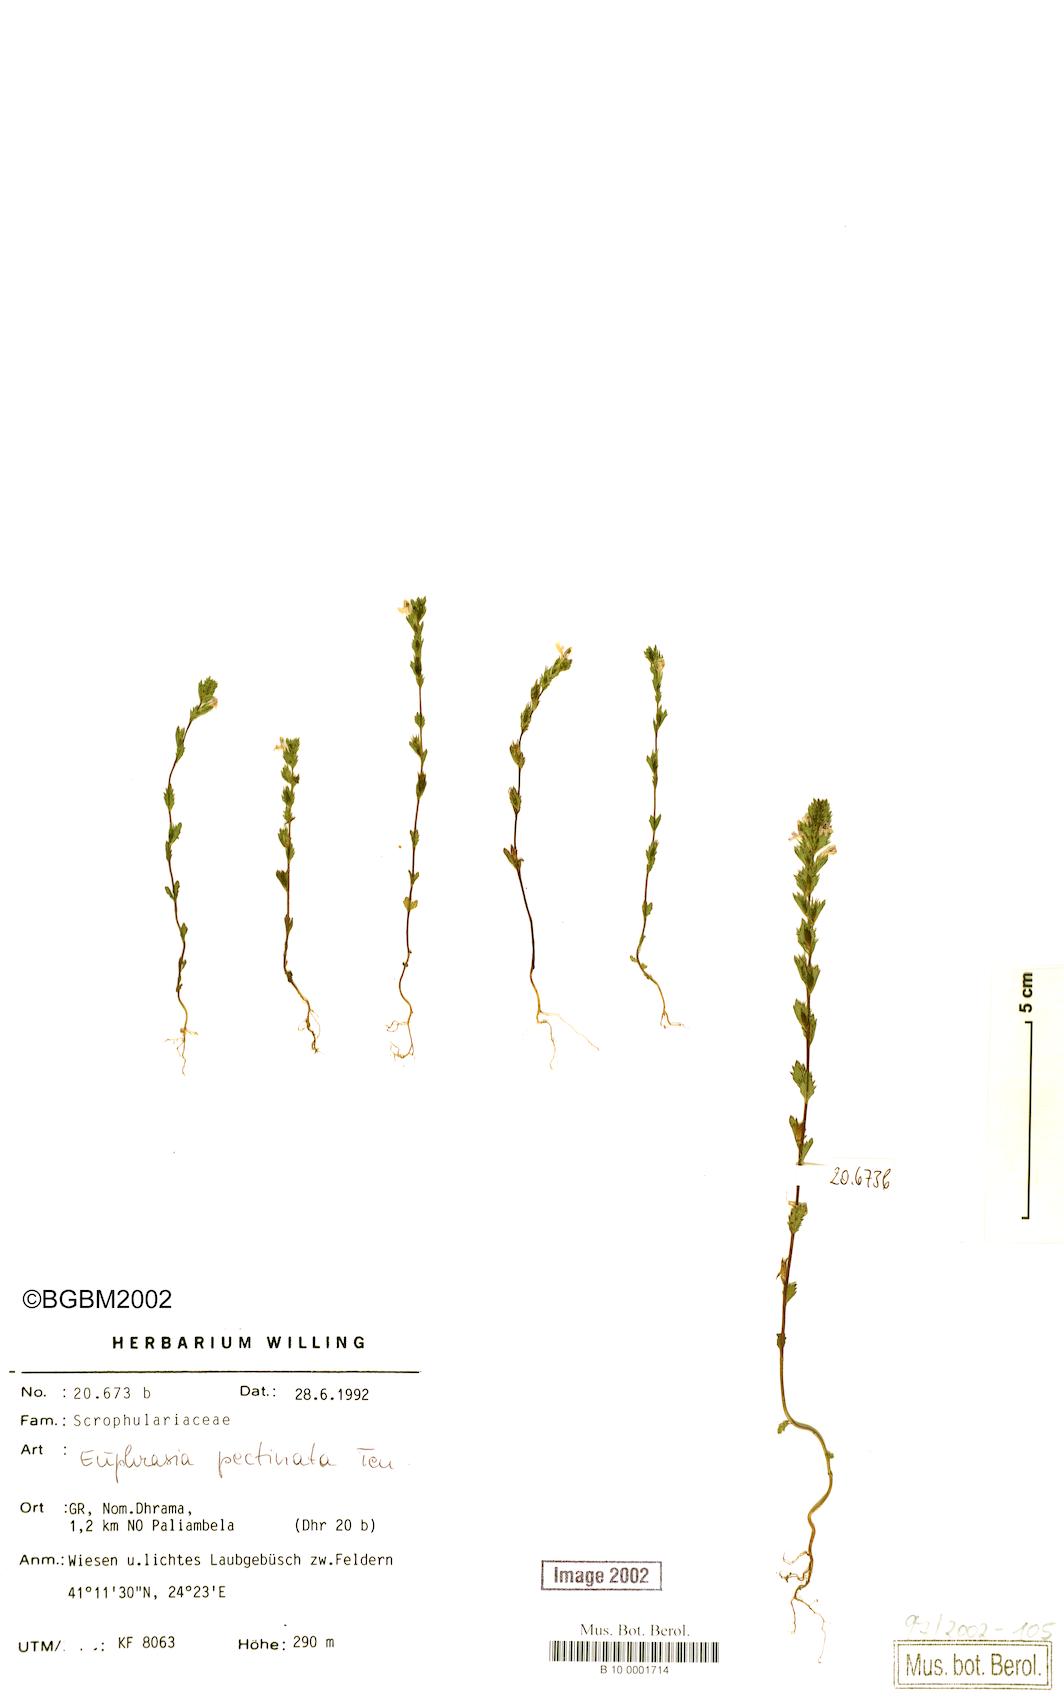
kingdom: Plantae
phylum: Tracheophyta
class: Magnoliopsida
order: Lamiales
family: Orobanchaceae
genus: Euphrasia
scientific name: Euphrasia pectinata
